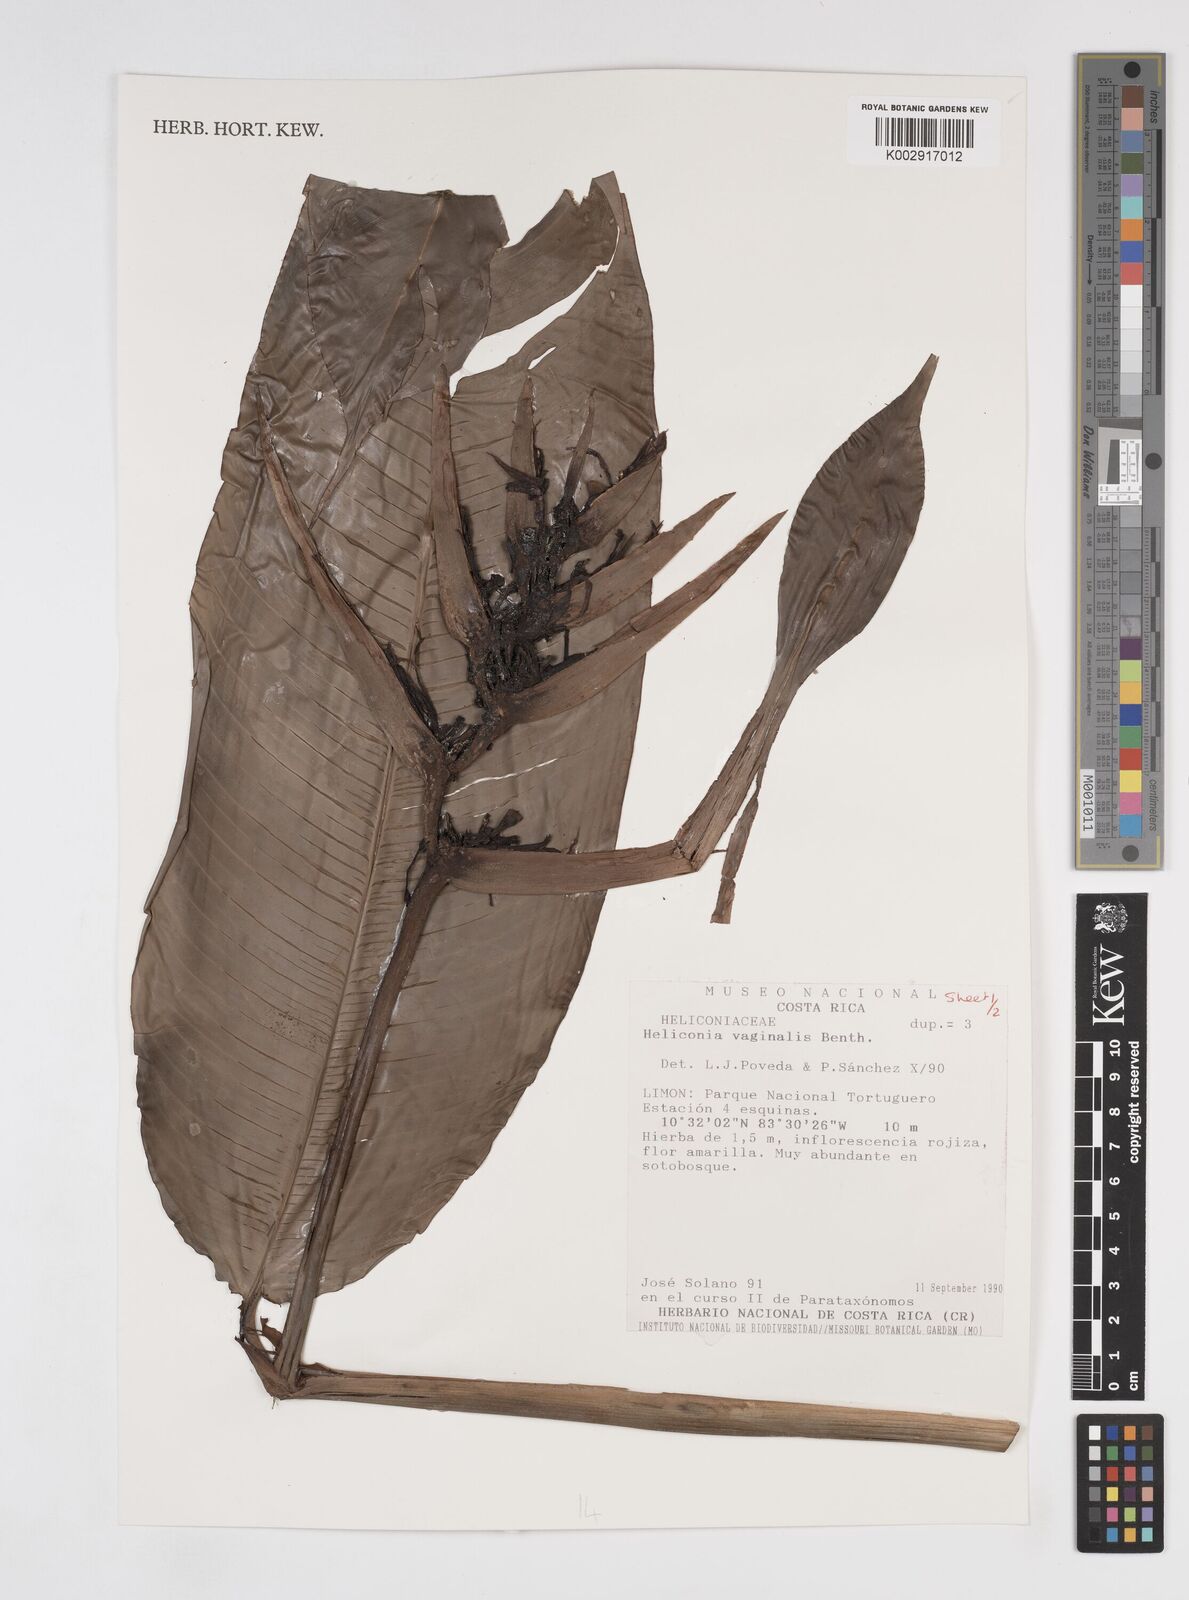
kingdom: Plantae
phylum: Tracheophyta
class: Liliopsida
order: Zingiberales
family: Heliconiaceae
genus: Heliconia
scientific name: Heliconia vaginalis
